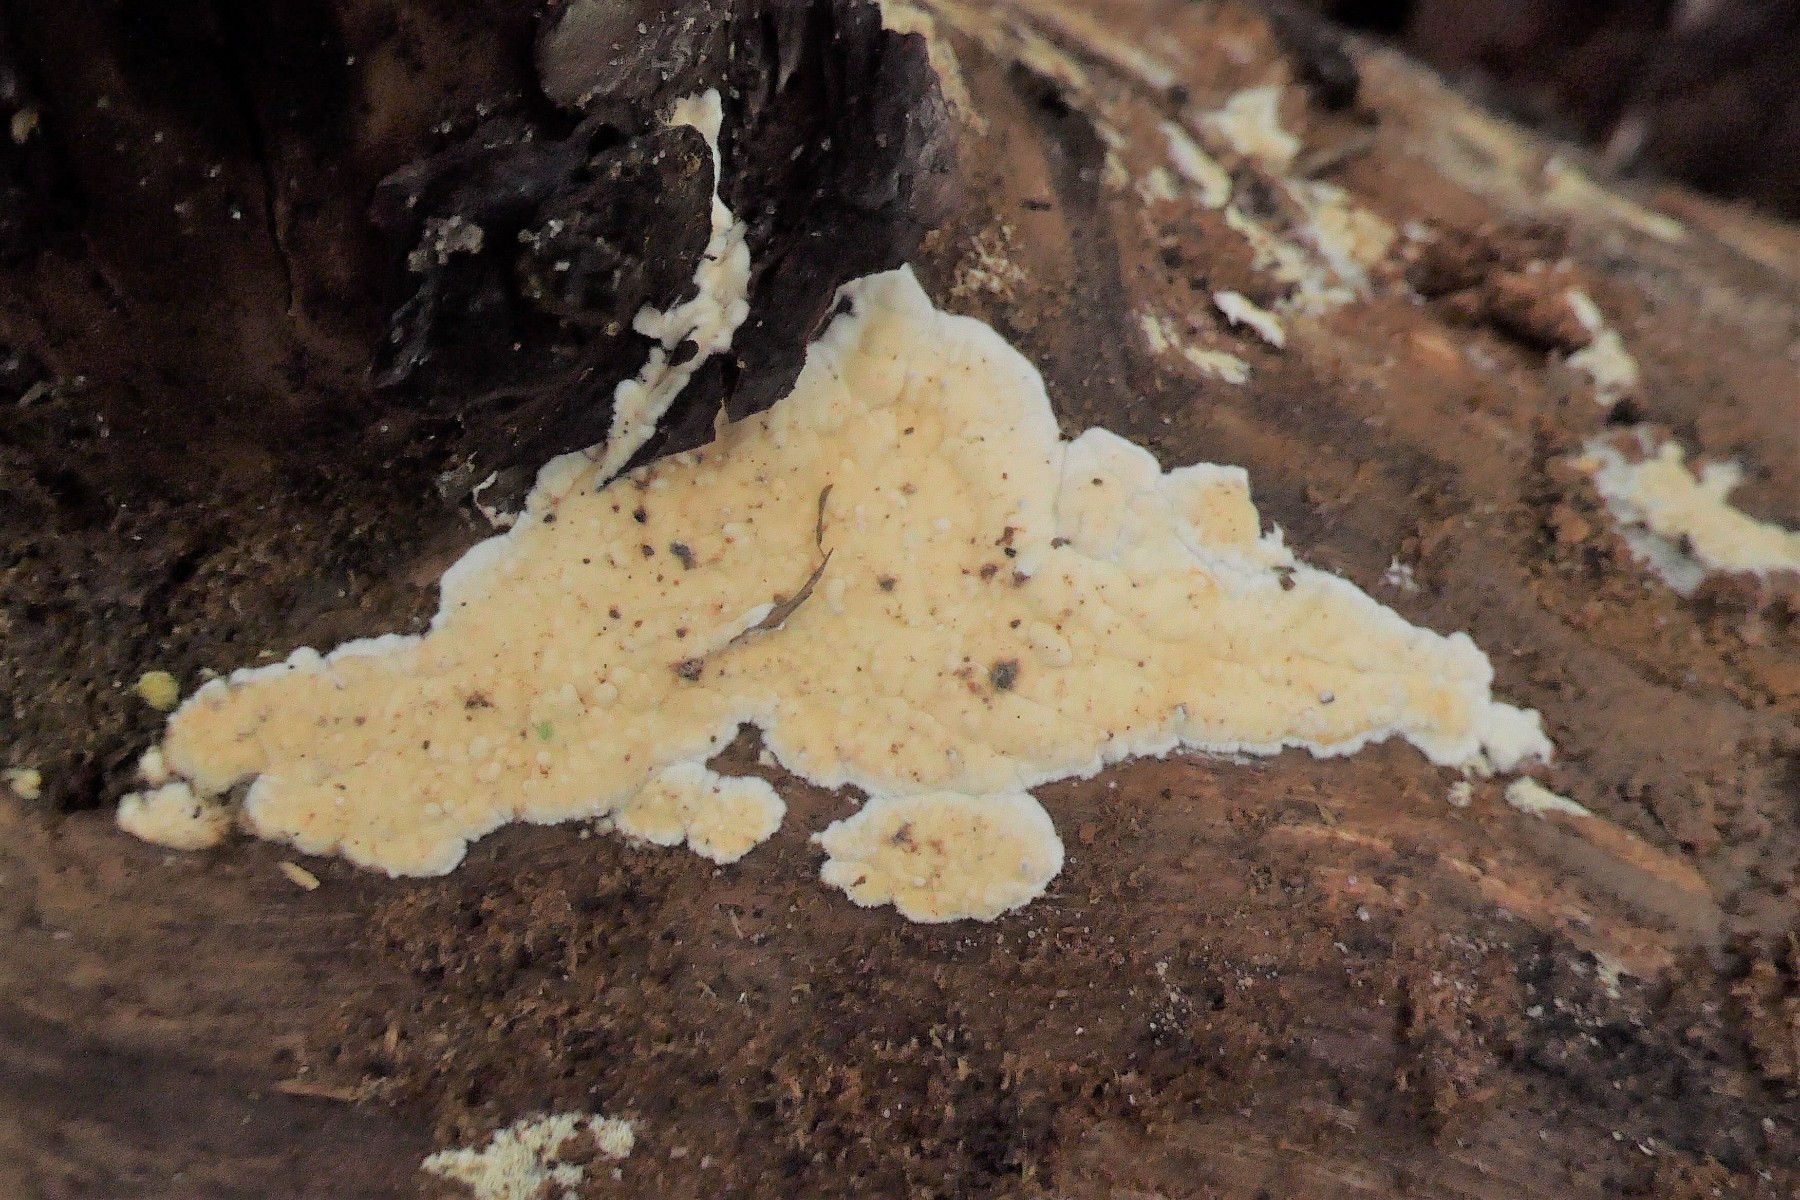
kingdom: Fungi
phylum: Basidiomycota
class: Agaricomycetes
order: Polyporales
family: Dacryobolaceae
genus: Dacryobolus
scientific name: Dacryobolus karstenii
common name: glat vulkanskorpe
